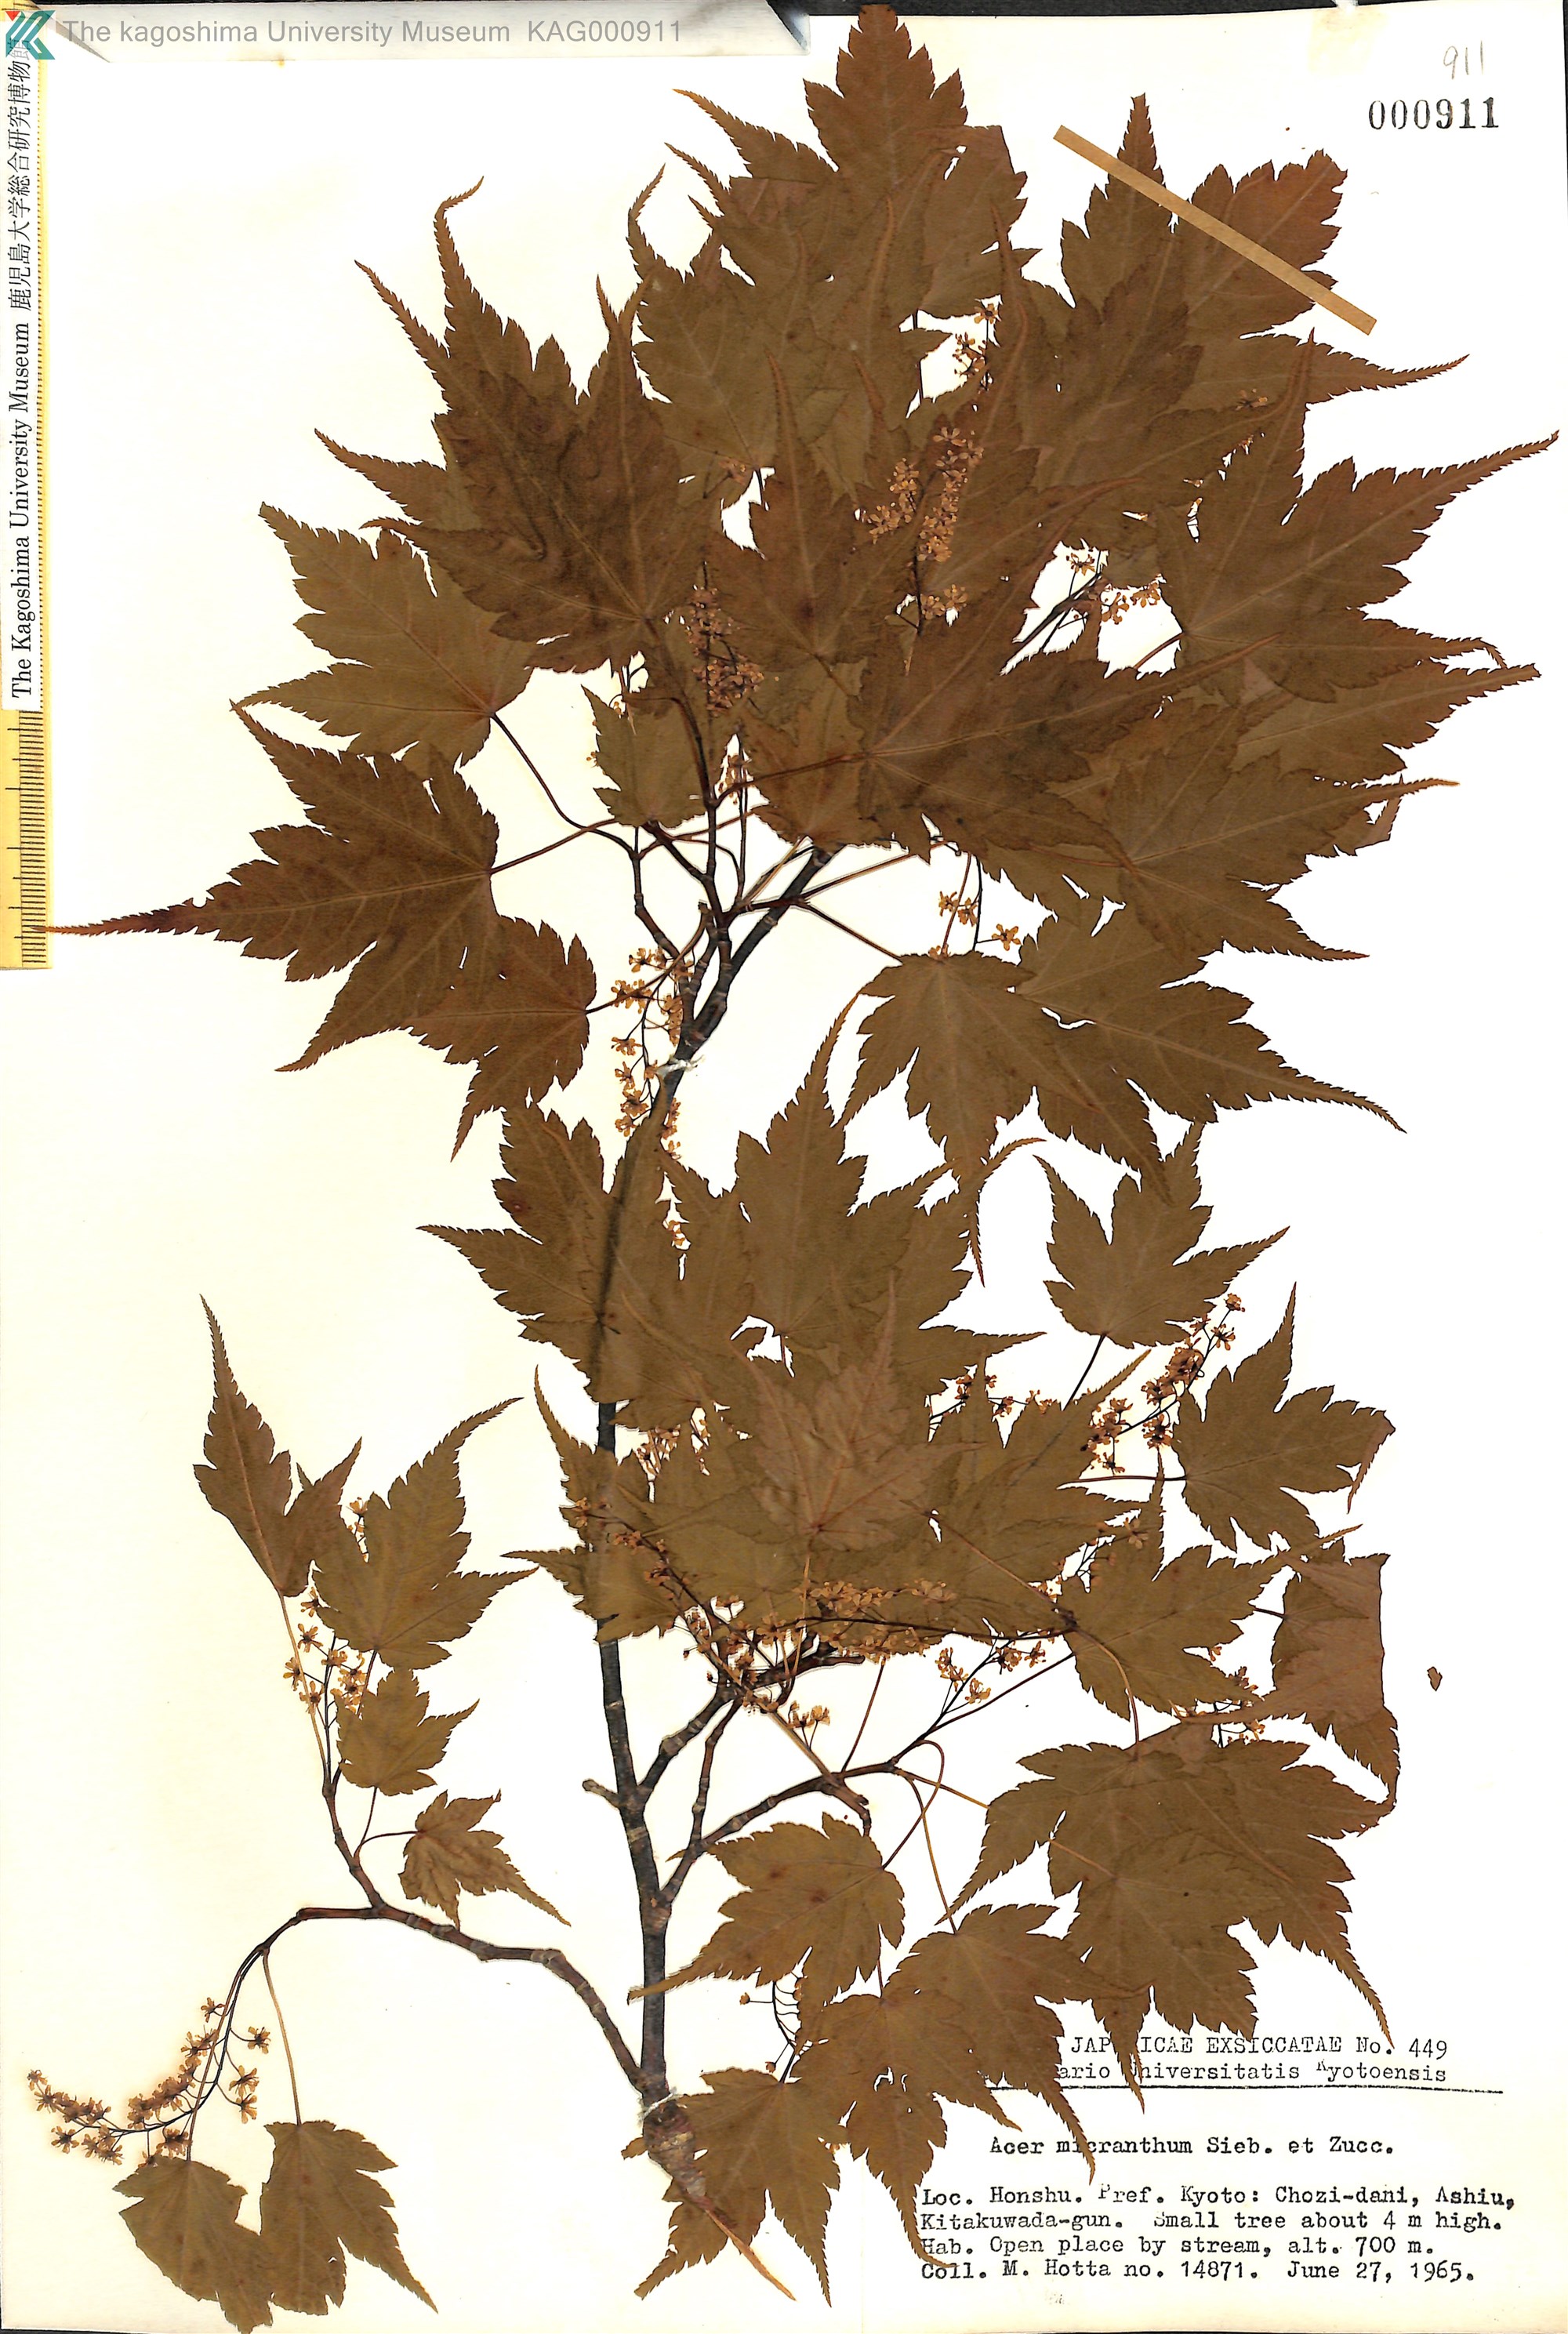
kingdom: Plantae
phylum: Tracheophyta
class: Magnoliopsida
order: Sapindales
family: Sapindaceae
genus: Acer
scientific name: Acer micranthum
